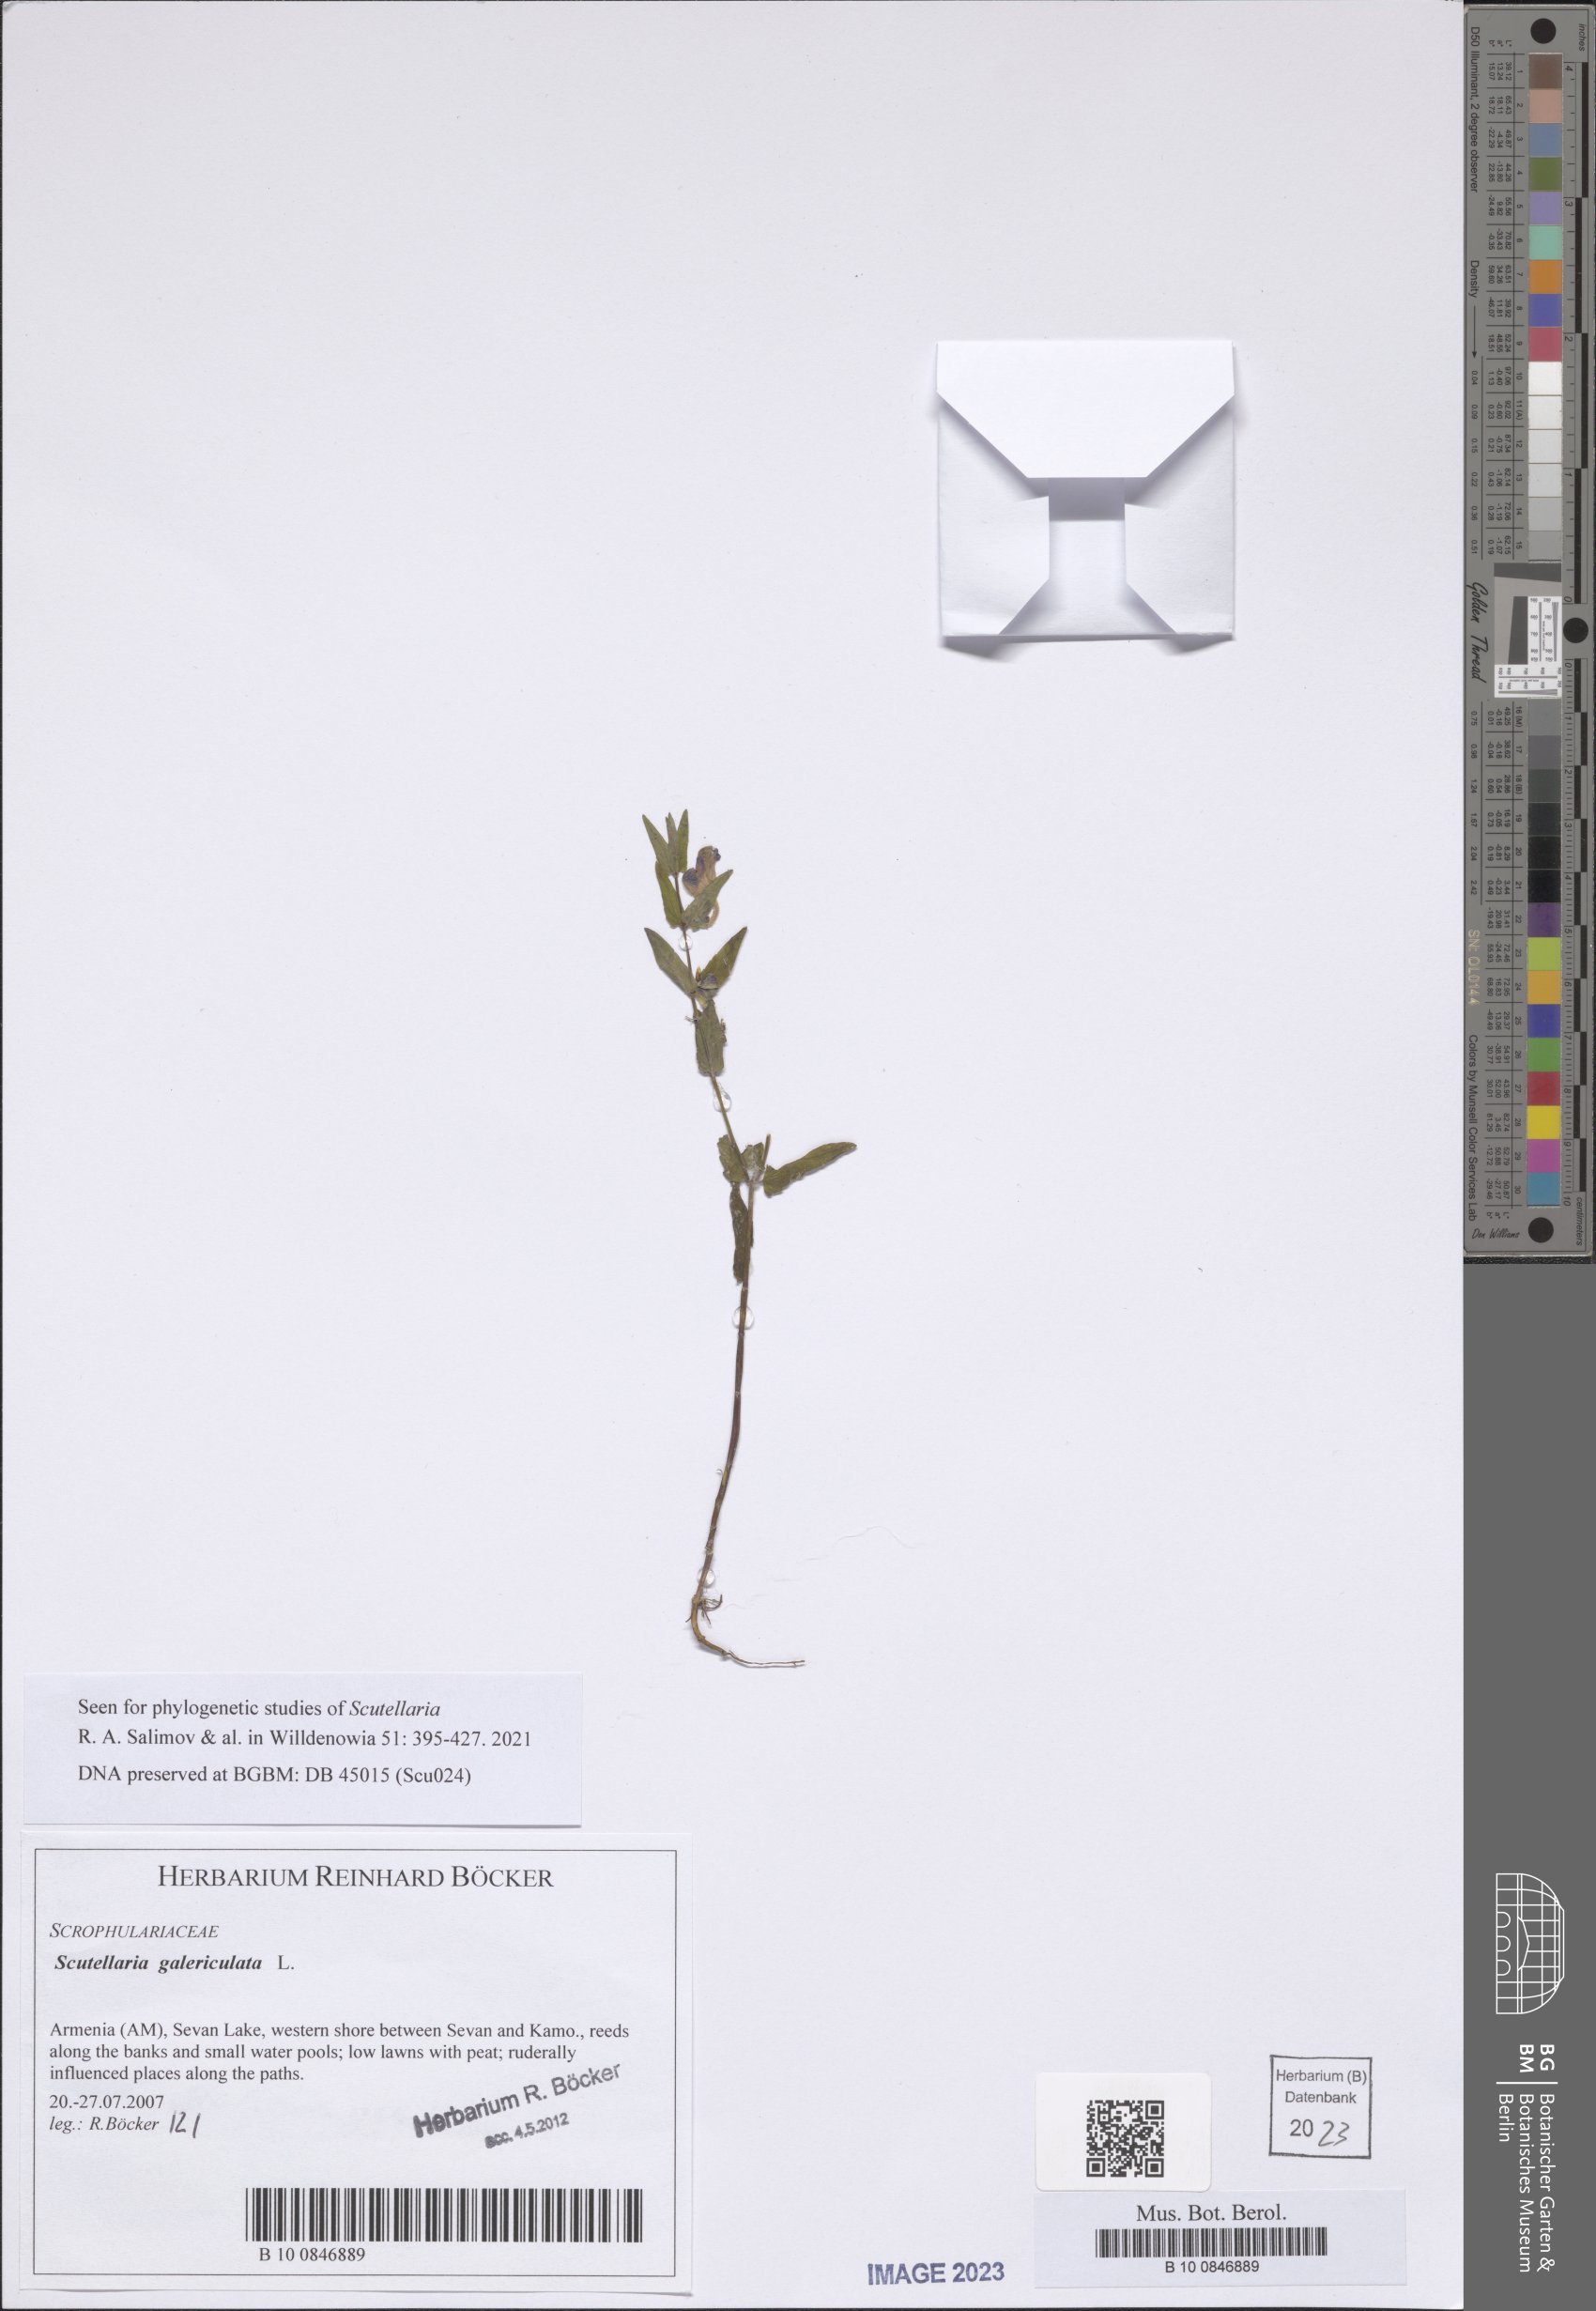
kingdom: Plantae
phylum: Tracheophyta
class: Magnoliopsida
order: Lamiales
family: Lamiaceae
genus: Scutellaria
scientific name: Scutellaria galericulata
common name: Skullcap
